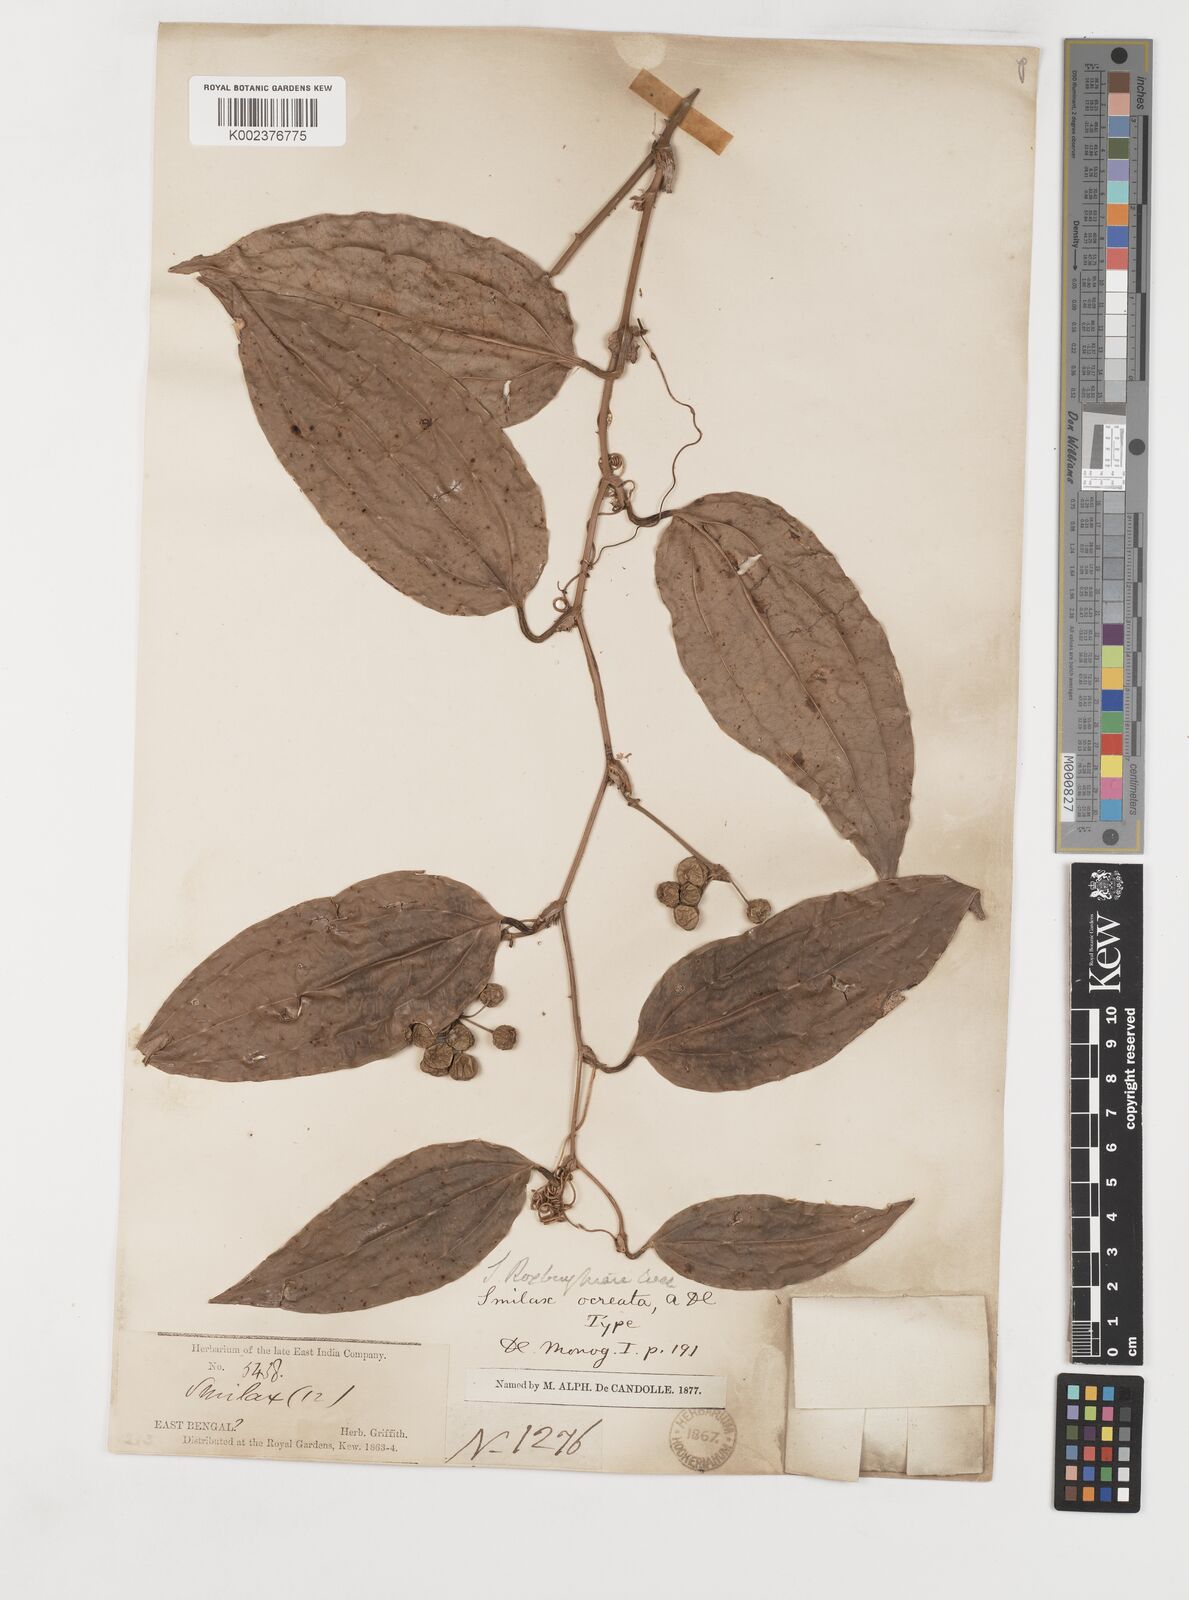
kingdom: Plantae
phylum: Tracheophyta
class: Liliopsida
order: Liliales
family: Smilacaceae
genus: Smilax
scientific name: Smilax ocreata
